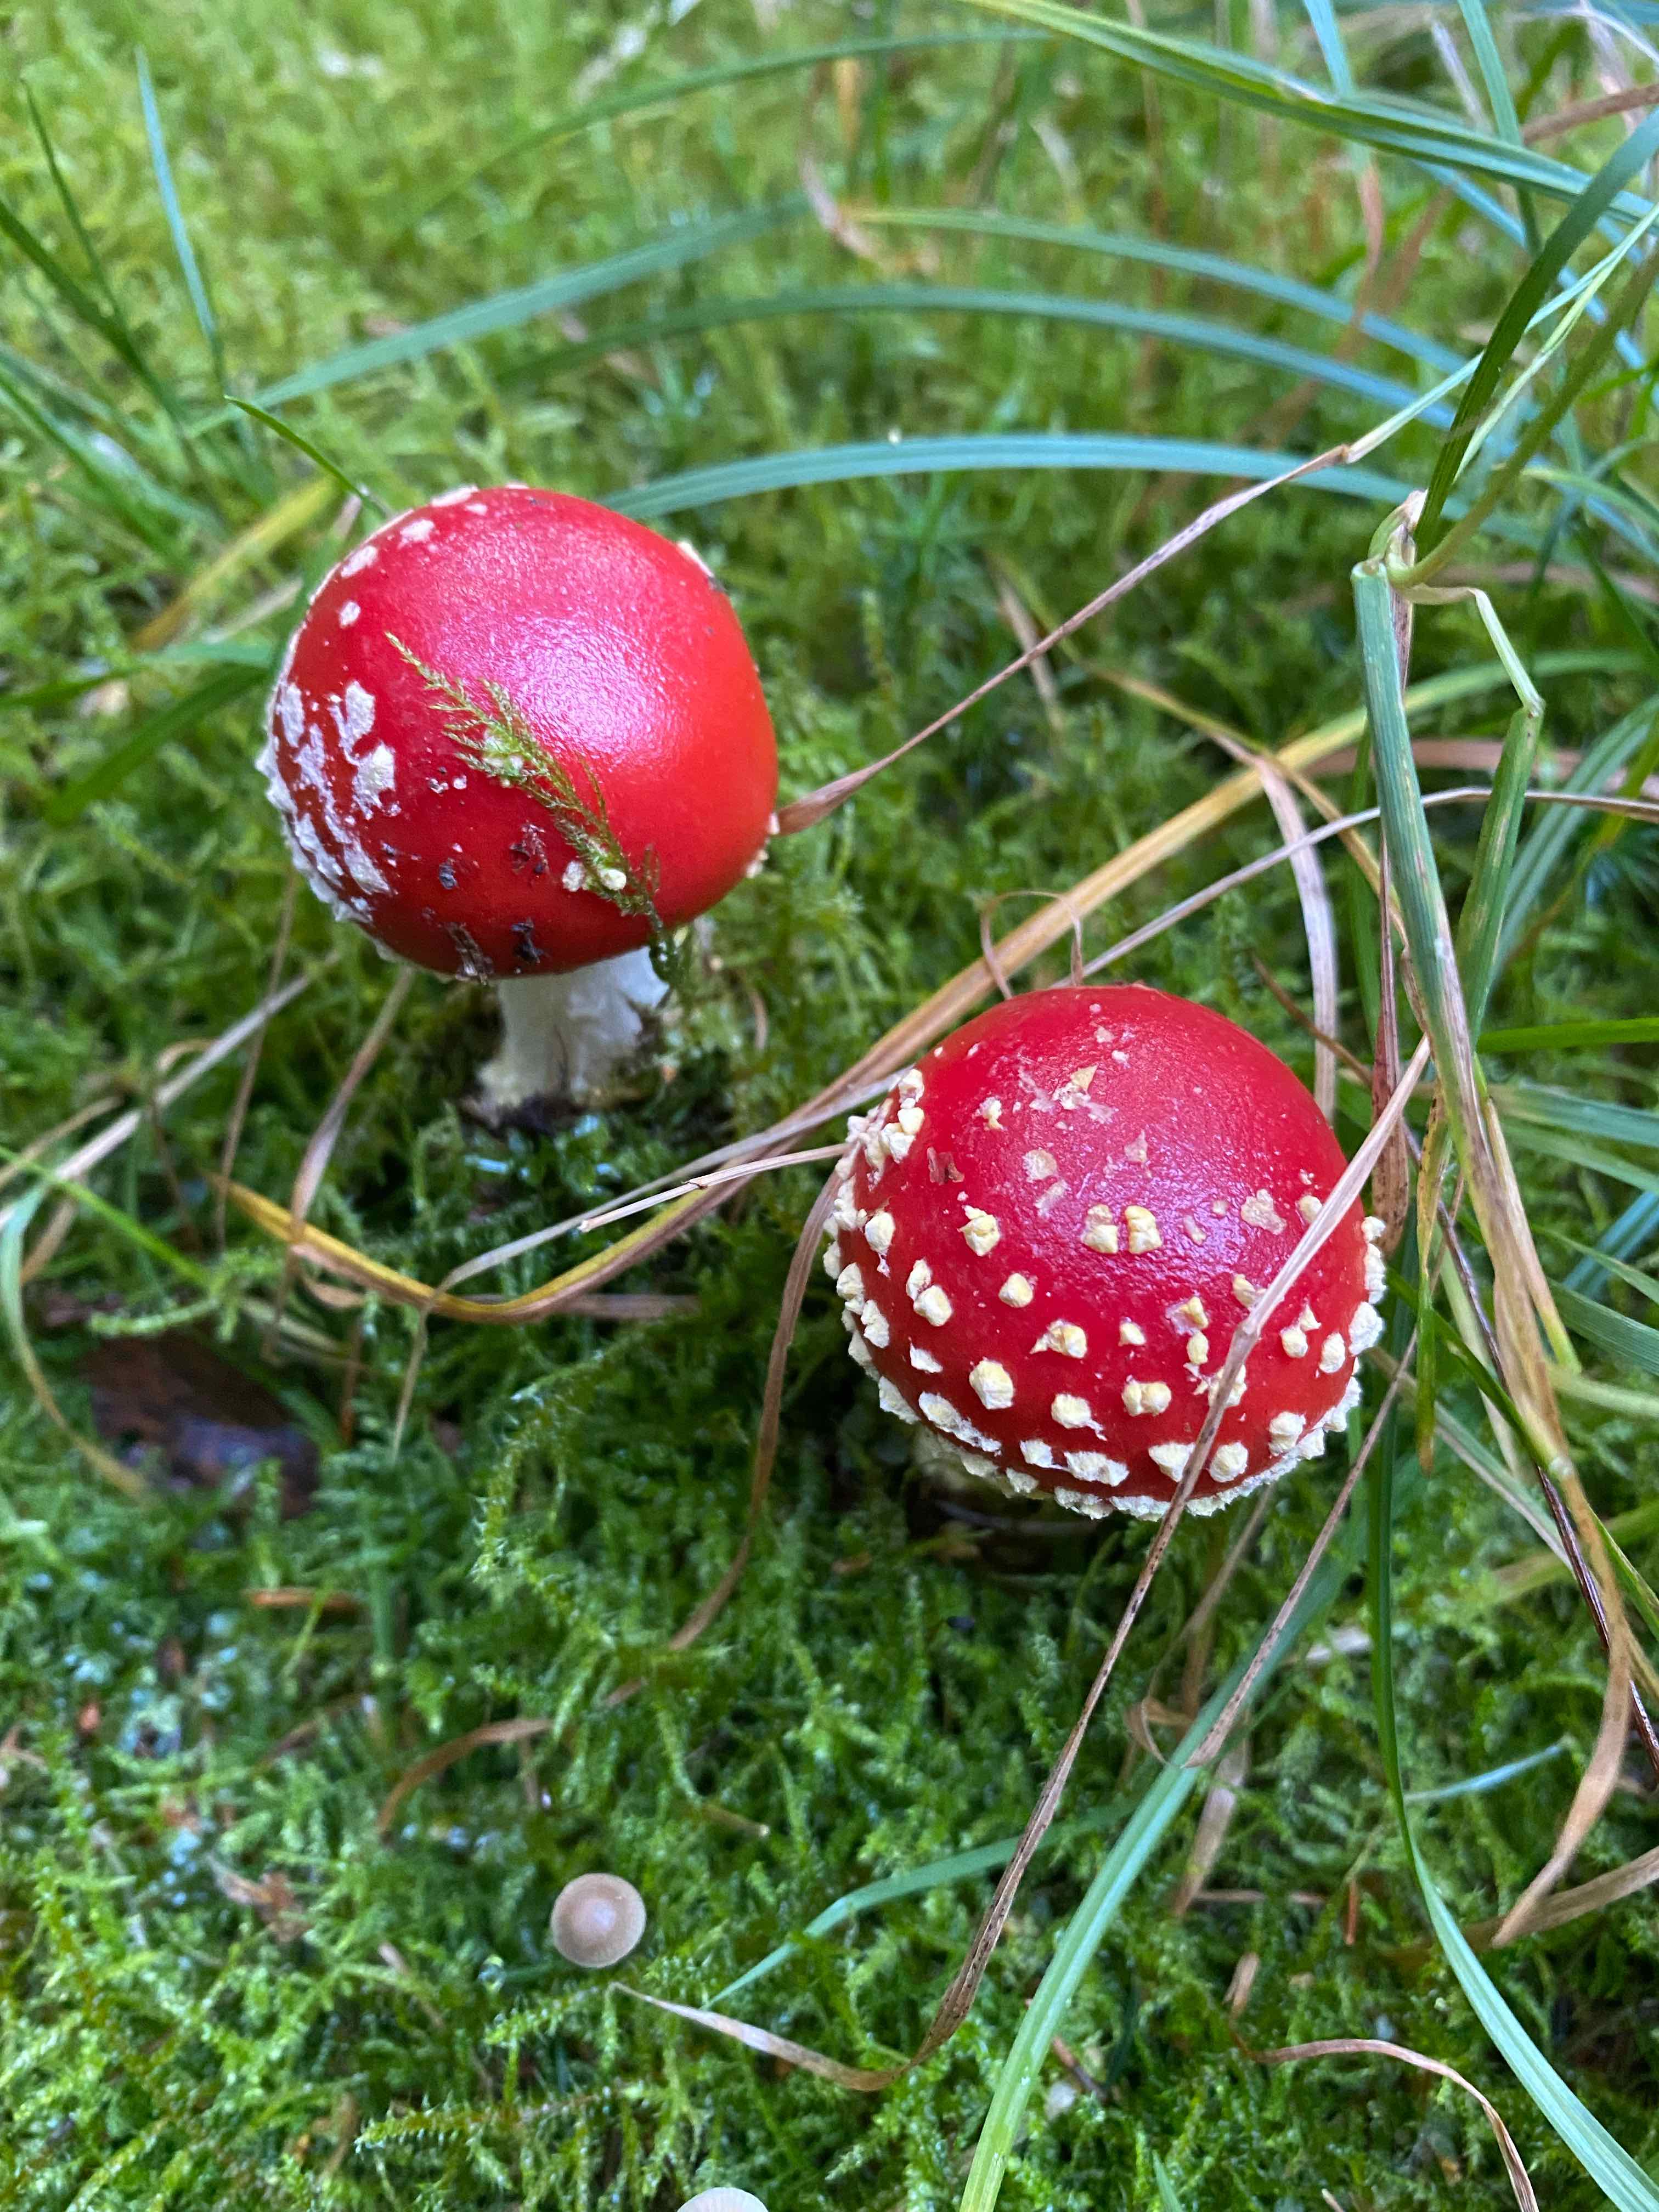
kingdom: Fungi
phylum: Basidiomycota
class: Agaricomycetes
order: Agaricales
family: Amanitaceae
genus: Amanita
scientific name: Amanita muscaria
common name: rød fluesvamp
